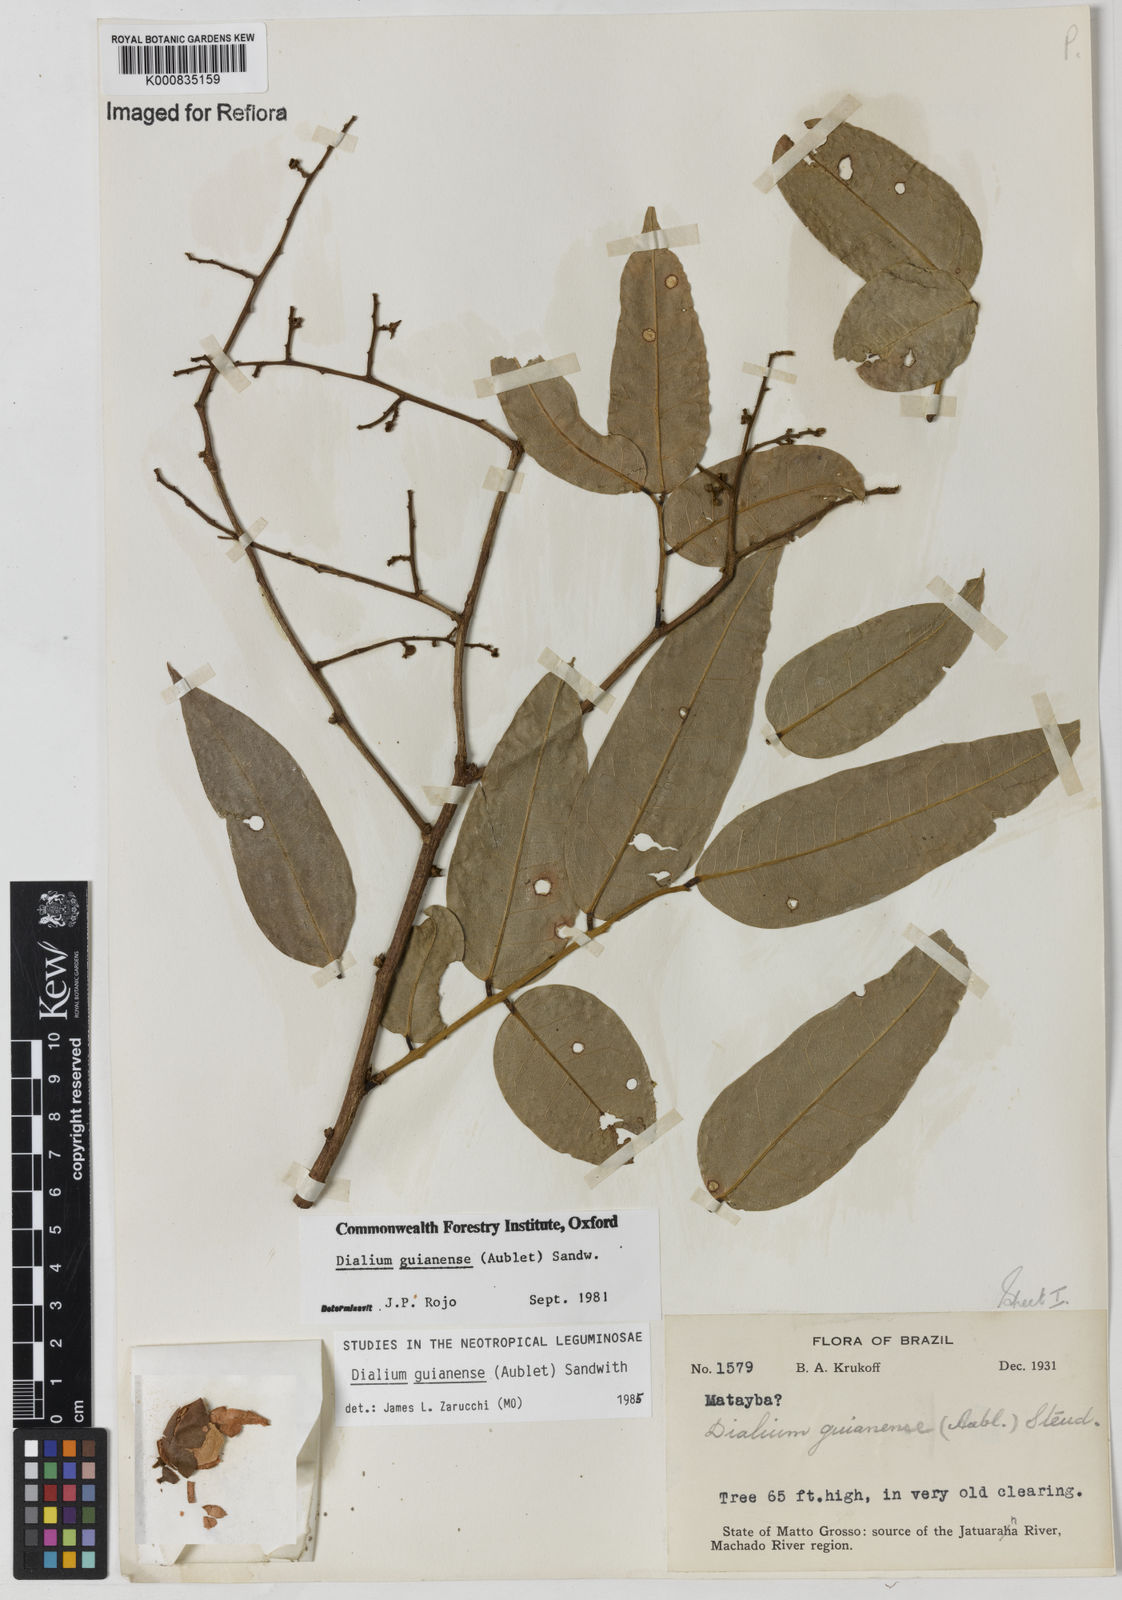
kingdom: Plantae
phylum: Tracheophyta
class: Magnoliopsida
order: Fabales
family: Fabaceae
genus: Dialium
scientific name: Dialium guianense
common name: Ironwood
